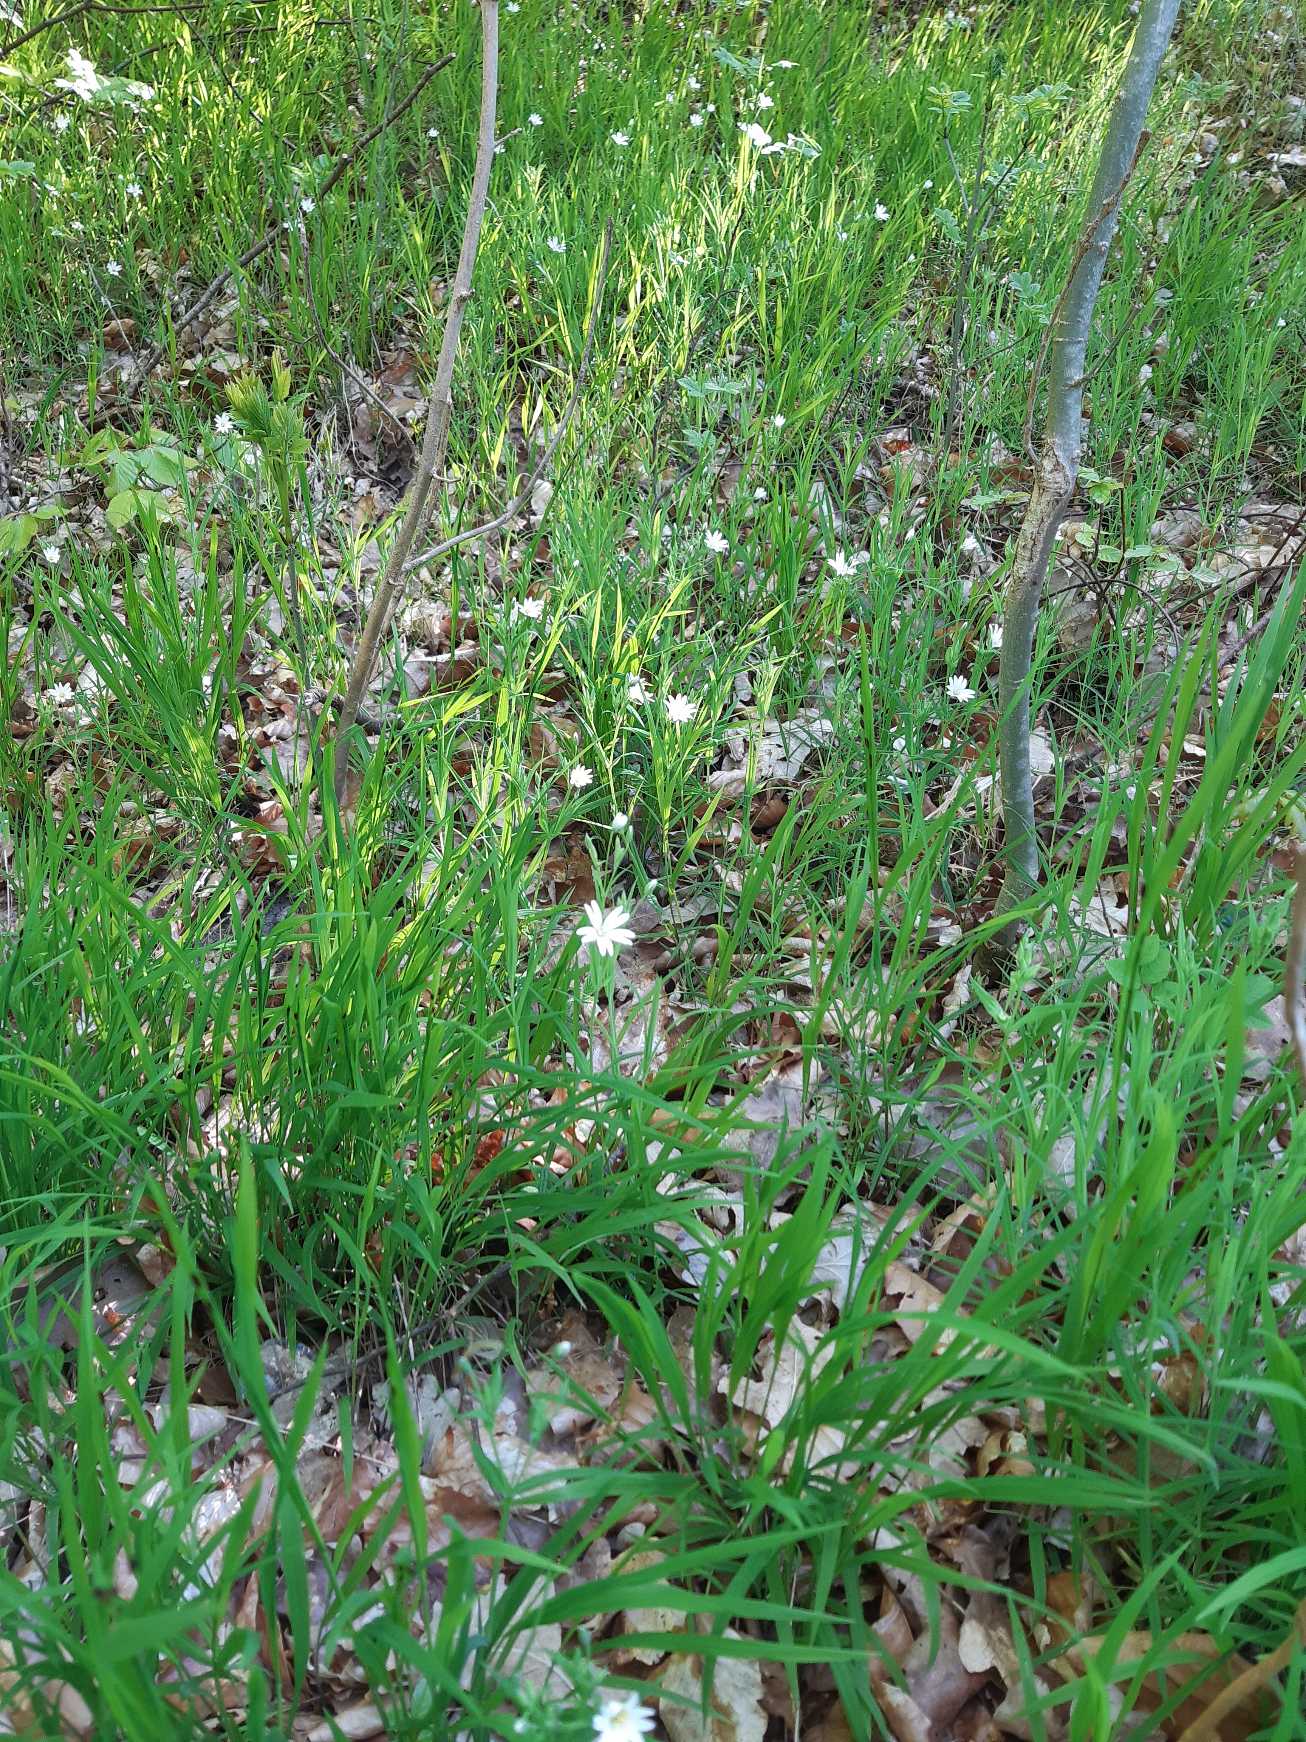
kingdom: Plantae
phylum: Tracheophyta
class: Magnoliopsida
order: Caryophyllales
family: Caryophyllaceae
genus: Rabelera
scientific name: Rabelera holostea
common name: Stor fladstjerne
